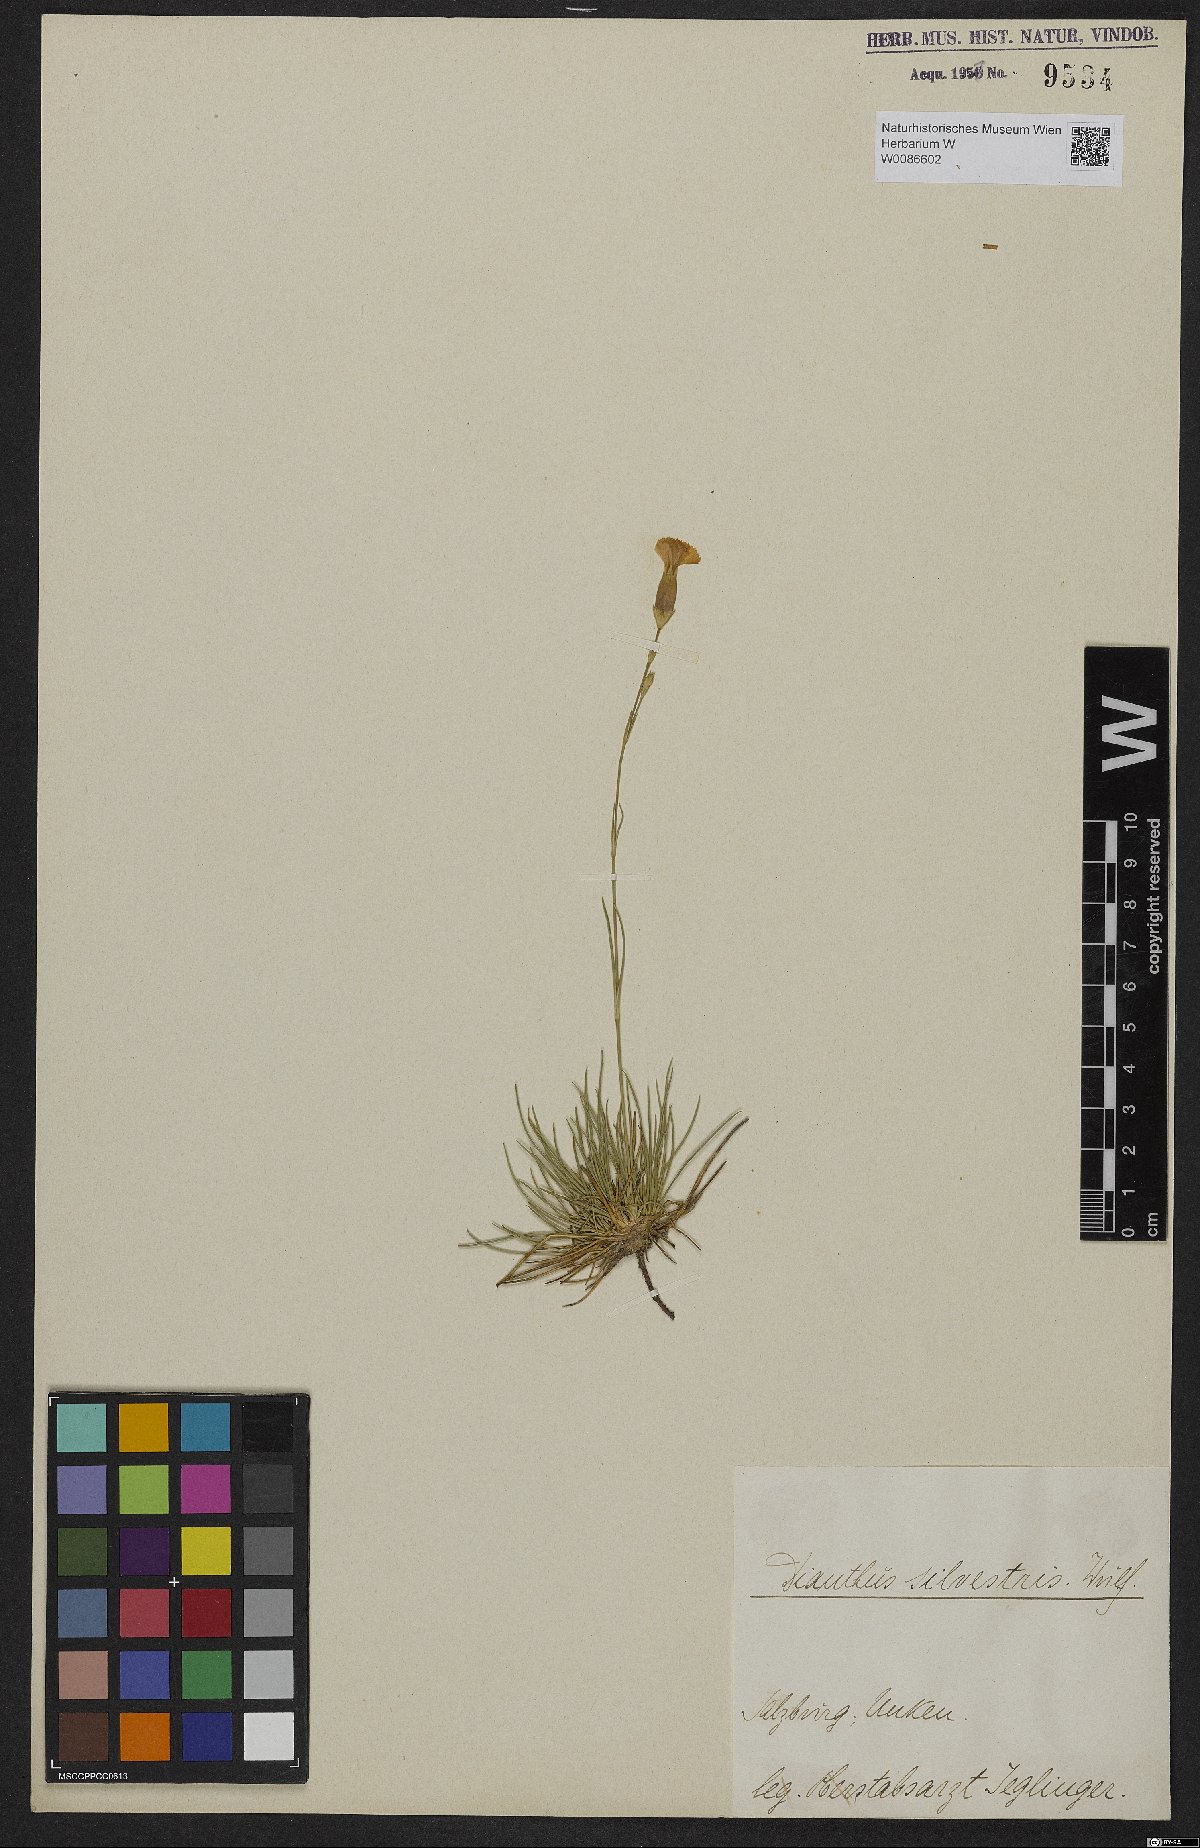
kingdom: Plantae
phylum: Tracheophyta
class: Magnoliopsida
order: Caryophyllales
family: Caryophyllaceae
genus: Dianthus
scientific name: Dianthus sylvestris
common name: Wood pink
